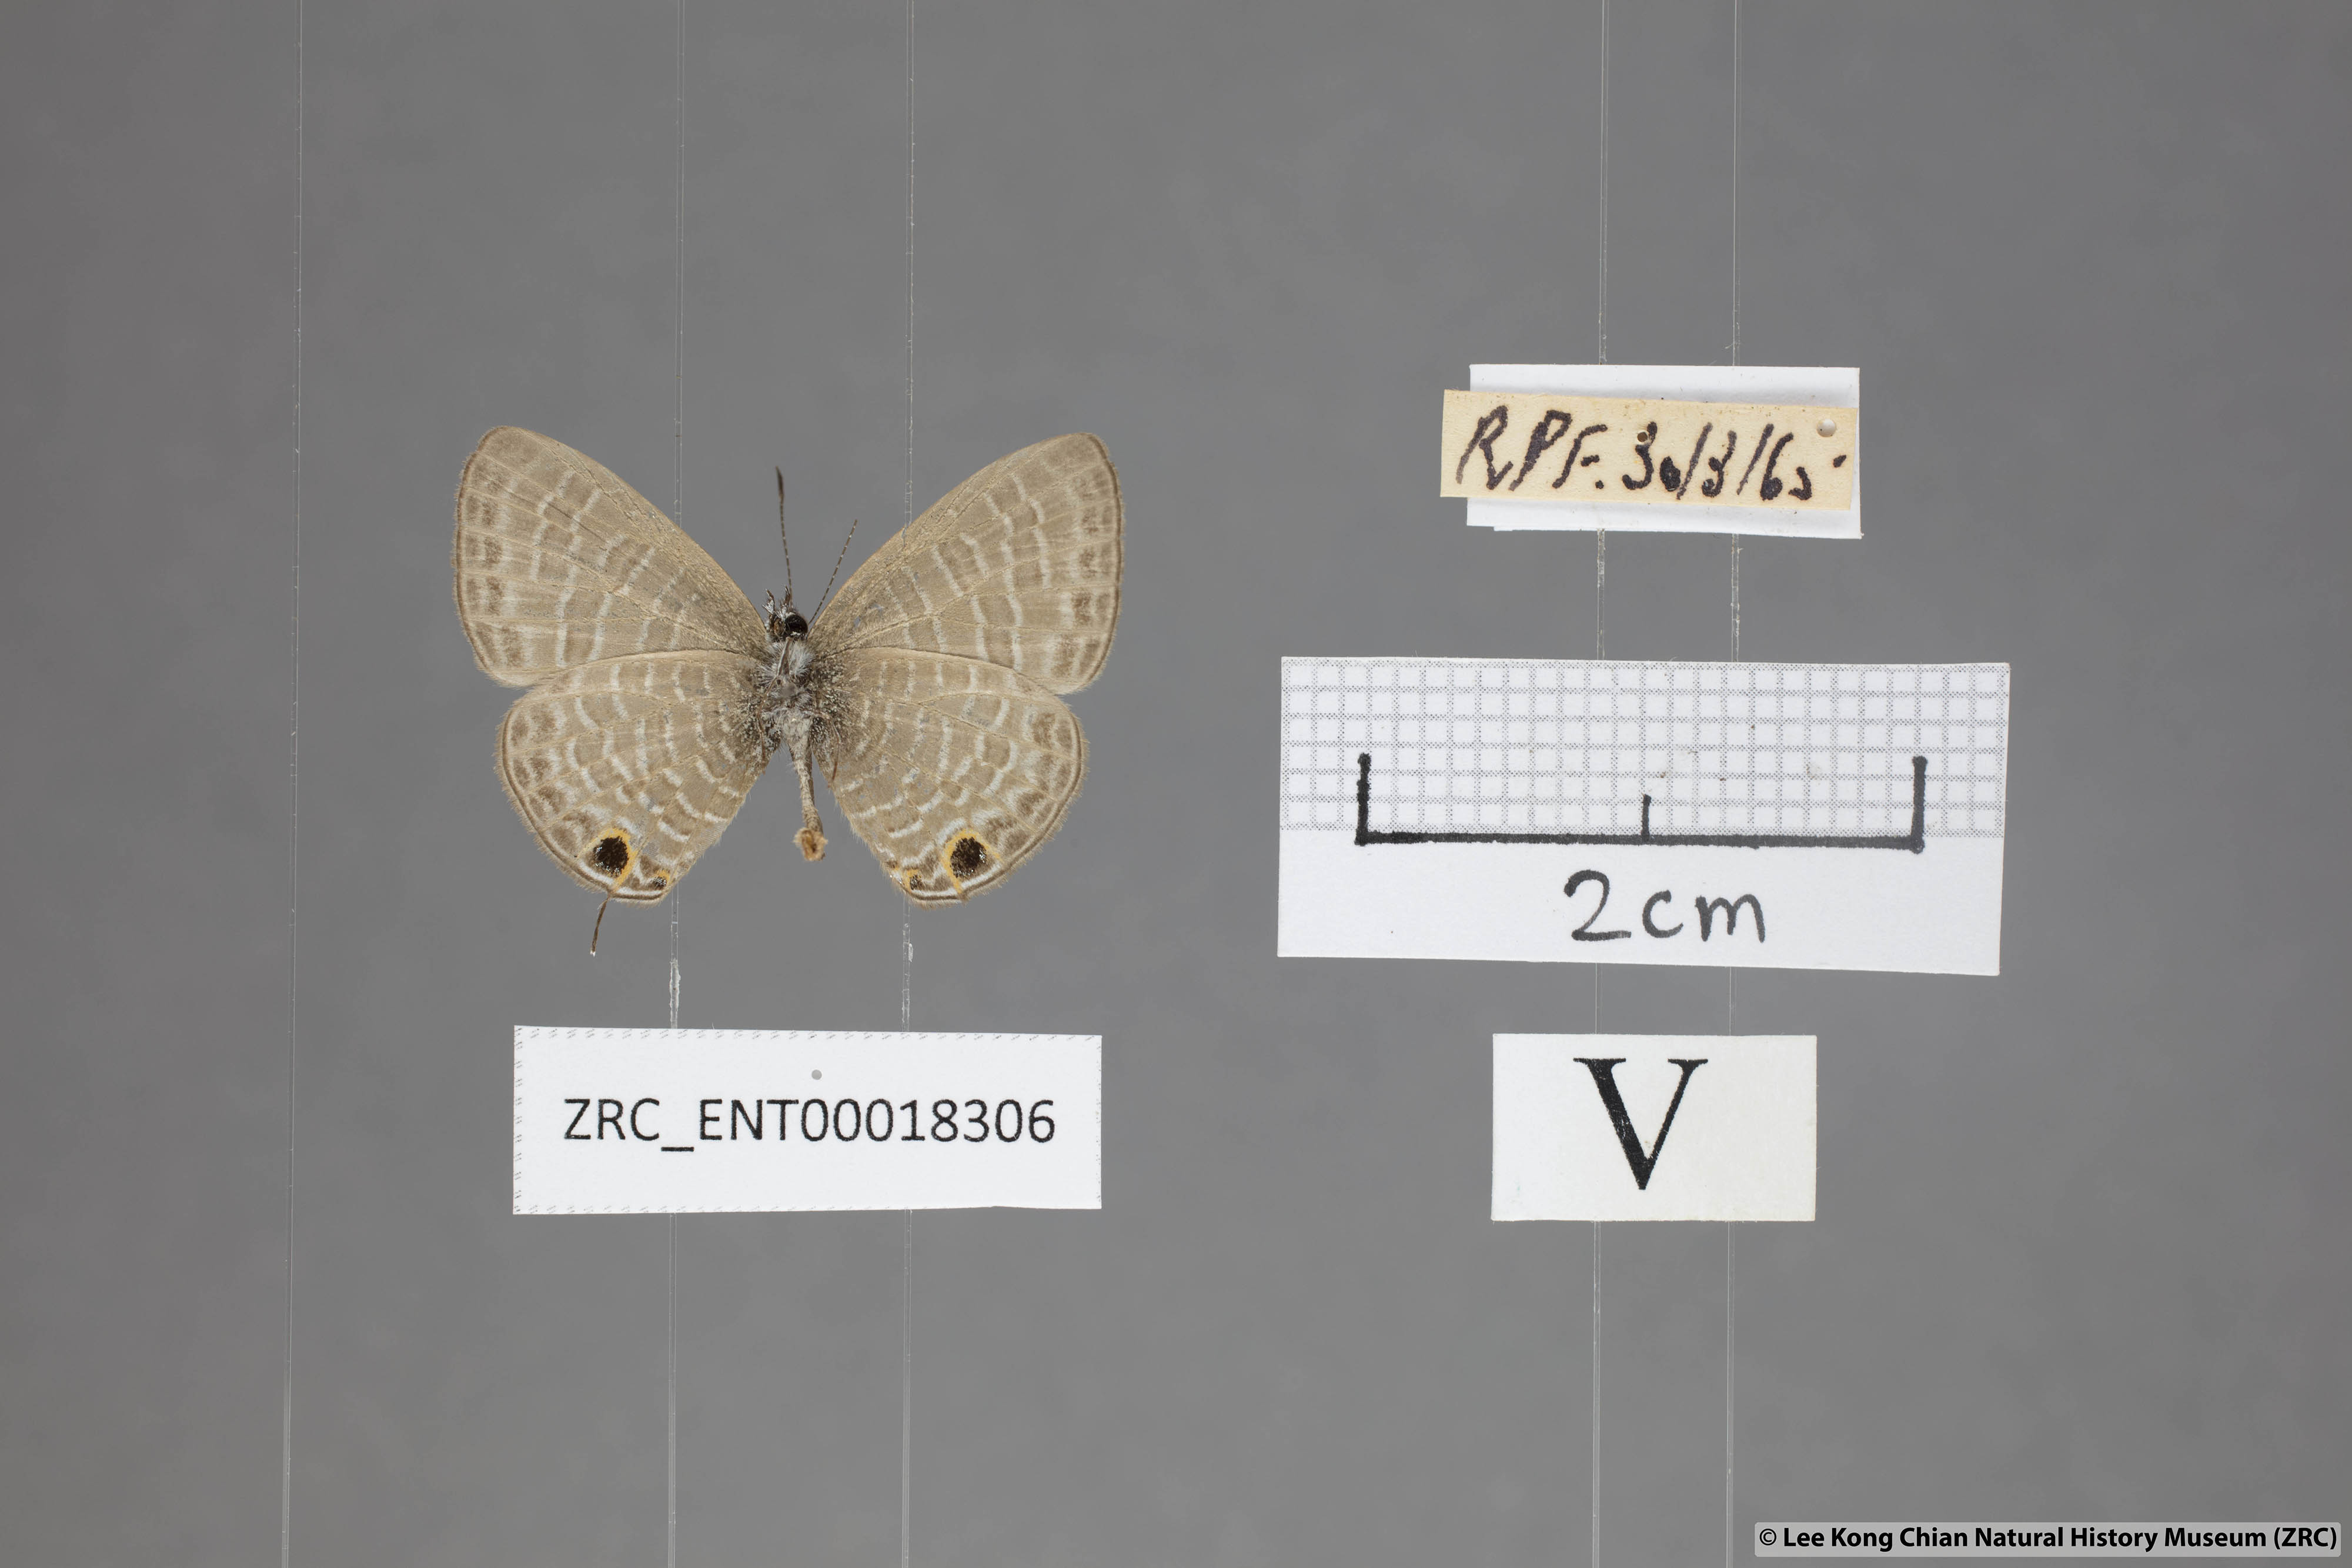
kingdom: Animalia
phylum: Arthropoda
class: Insecta
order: Lepidoptera
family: Lycaenidae
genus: Nacaduba
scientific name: Nacaduba berenice
